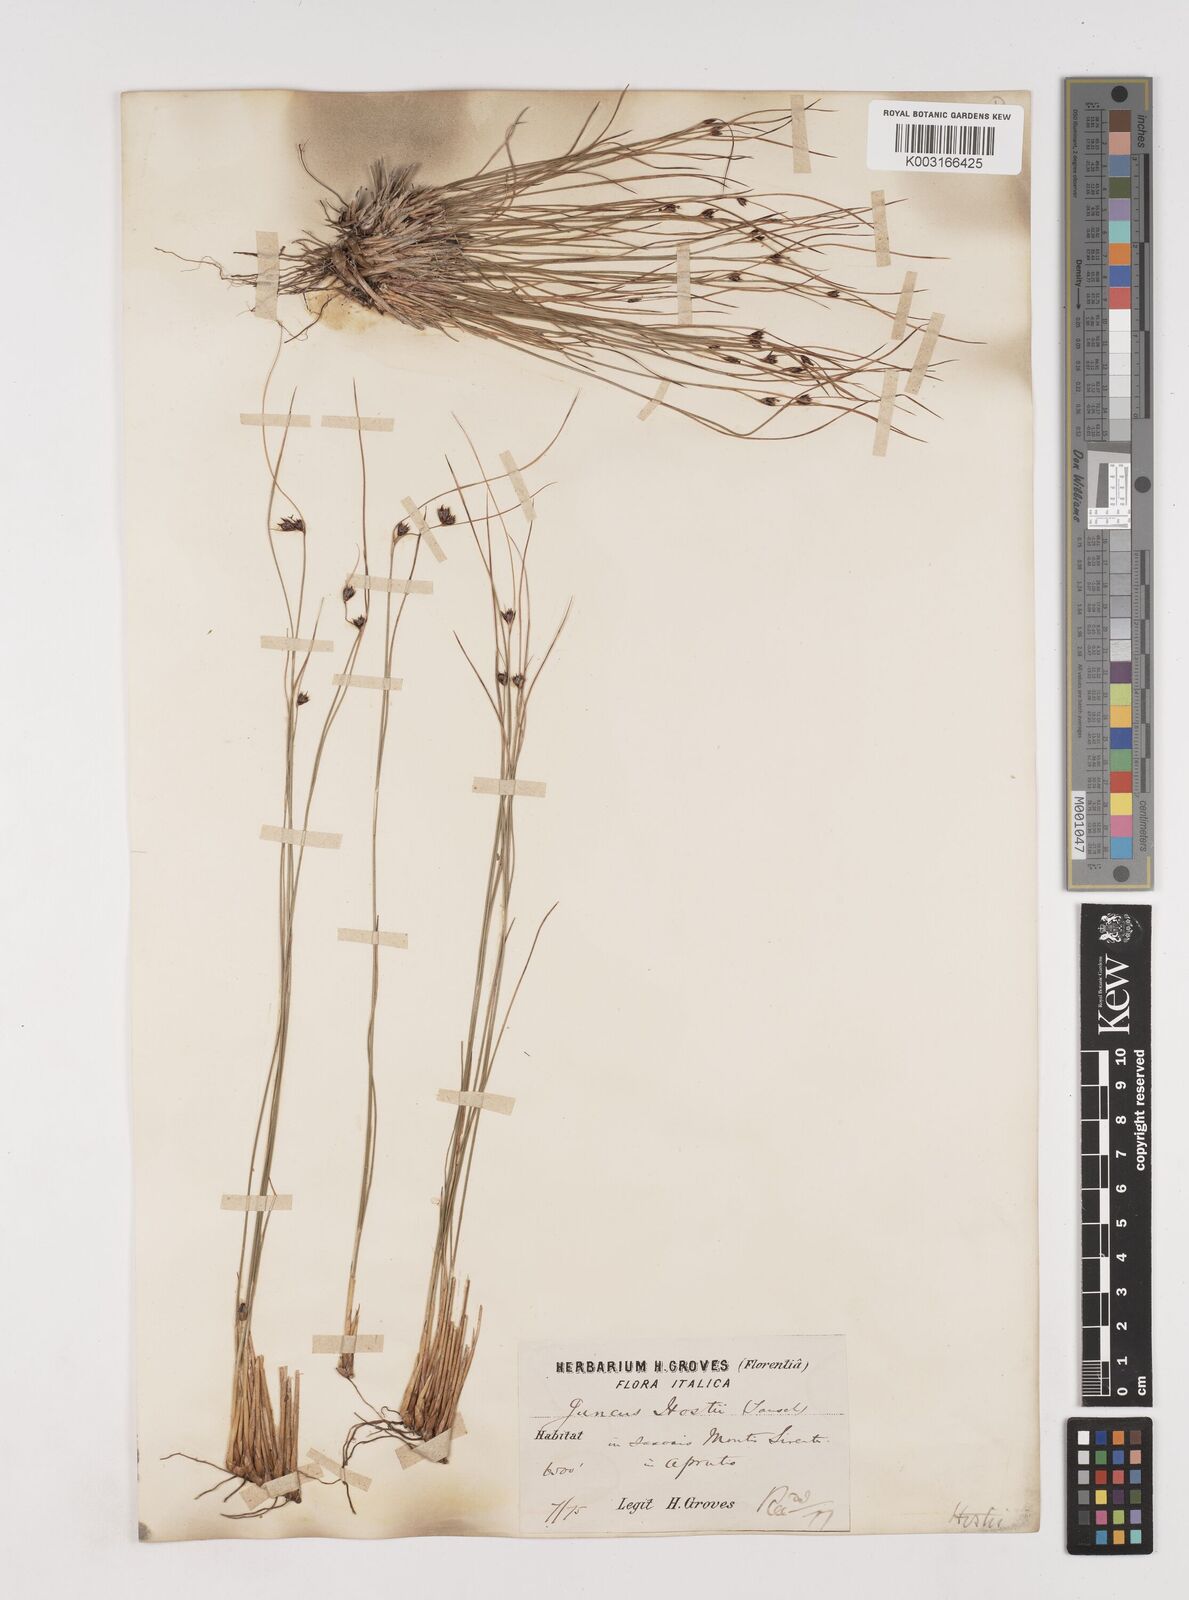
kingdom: Plantae
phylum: Tracheophyta
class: Liliopsida
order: Poales
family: Juncaceae
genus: Oreojuncus
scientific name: Oreojuncus trifidus
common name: Highland rush
